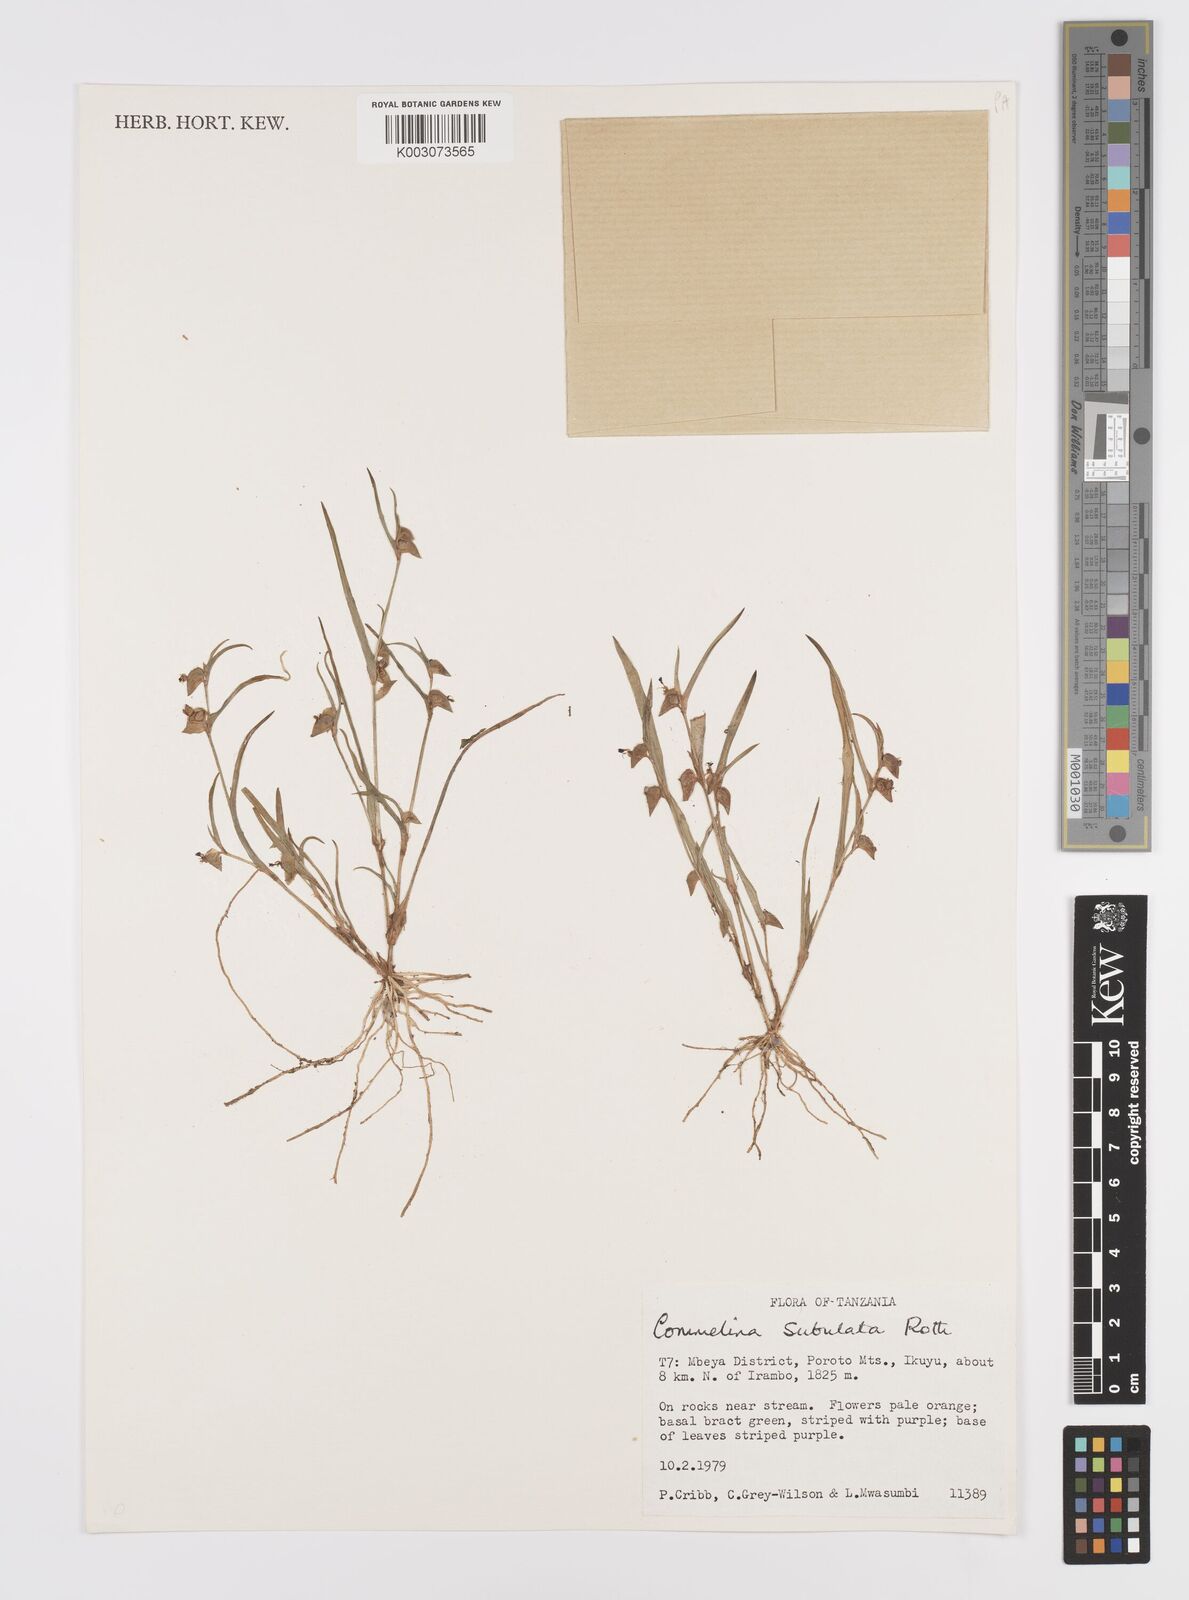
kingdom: Plantae
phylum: Tracheophyta
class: Liliopsida
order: Commelinales
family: Commelinaceae
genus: Commelina
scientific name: Commelina subulata
